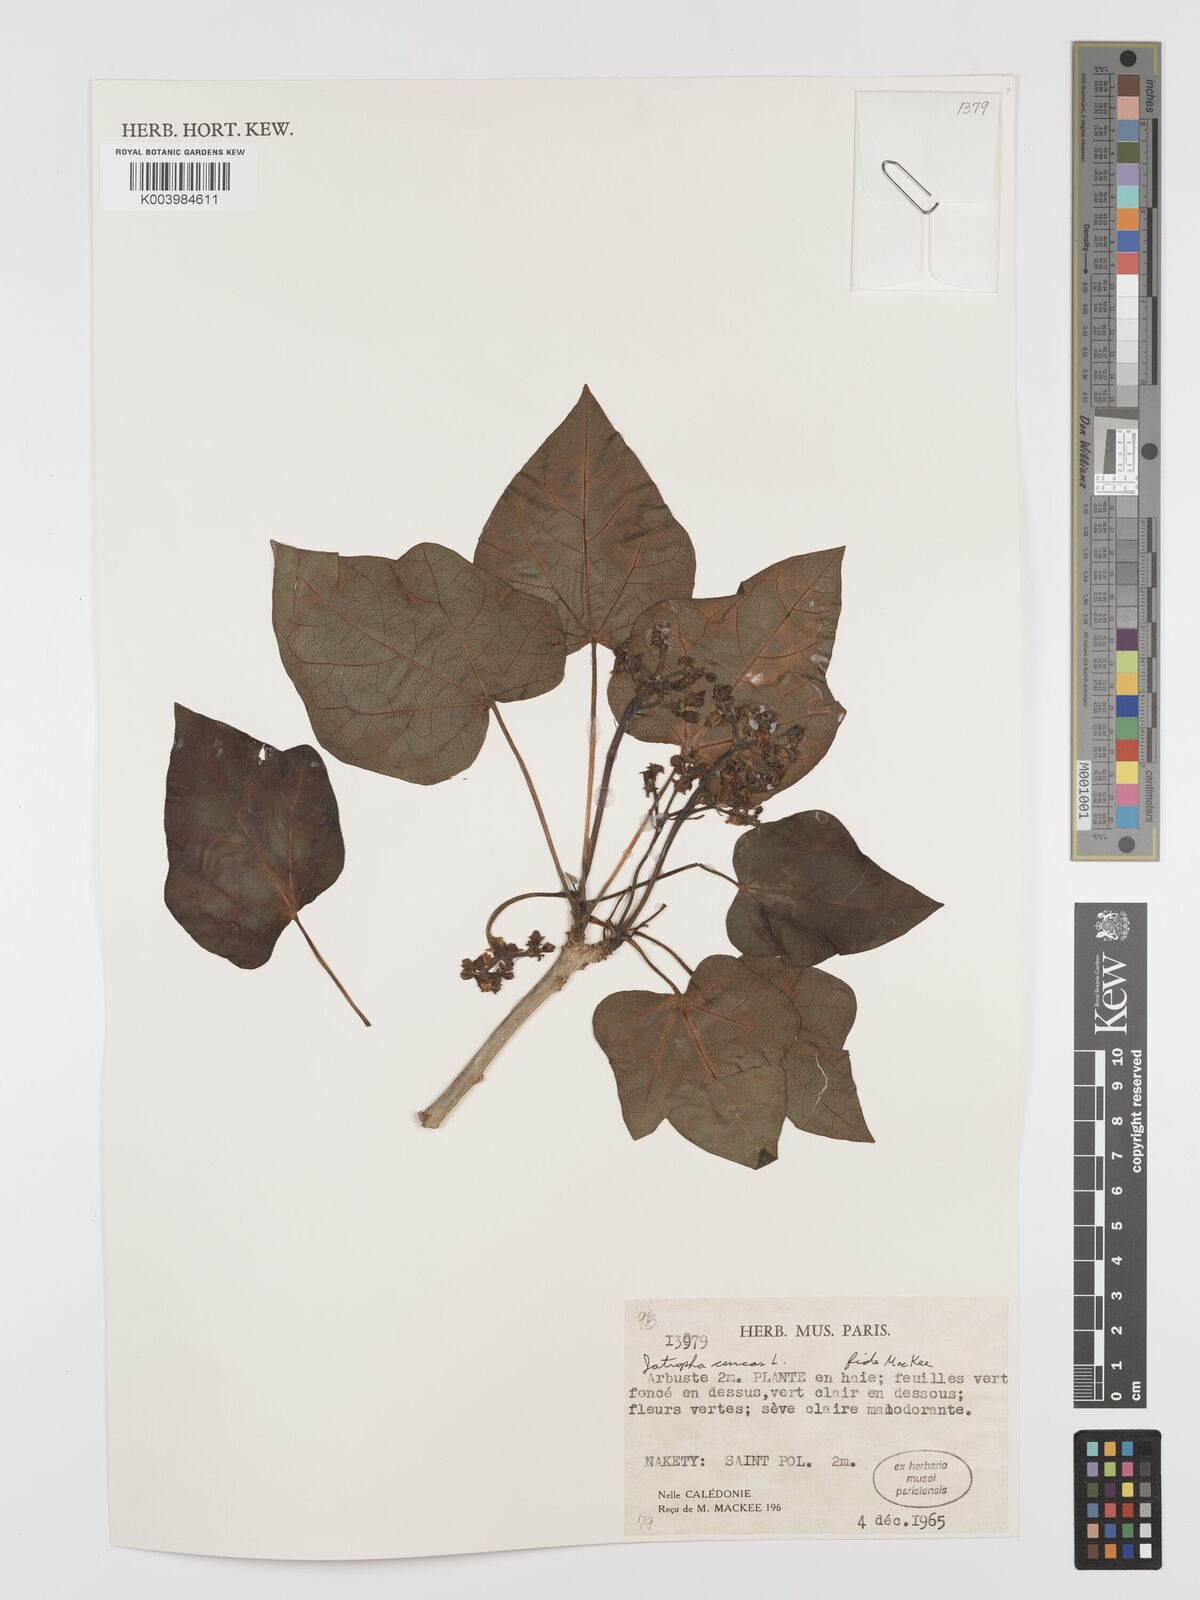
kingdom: Plantae
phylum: Tracheophyta
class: Magnoliopsida
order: Malpighiales
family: Euphorbiaceae
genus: Jatropha
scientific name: Jatropha curcas
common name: Barbados nut
